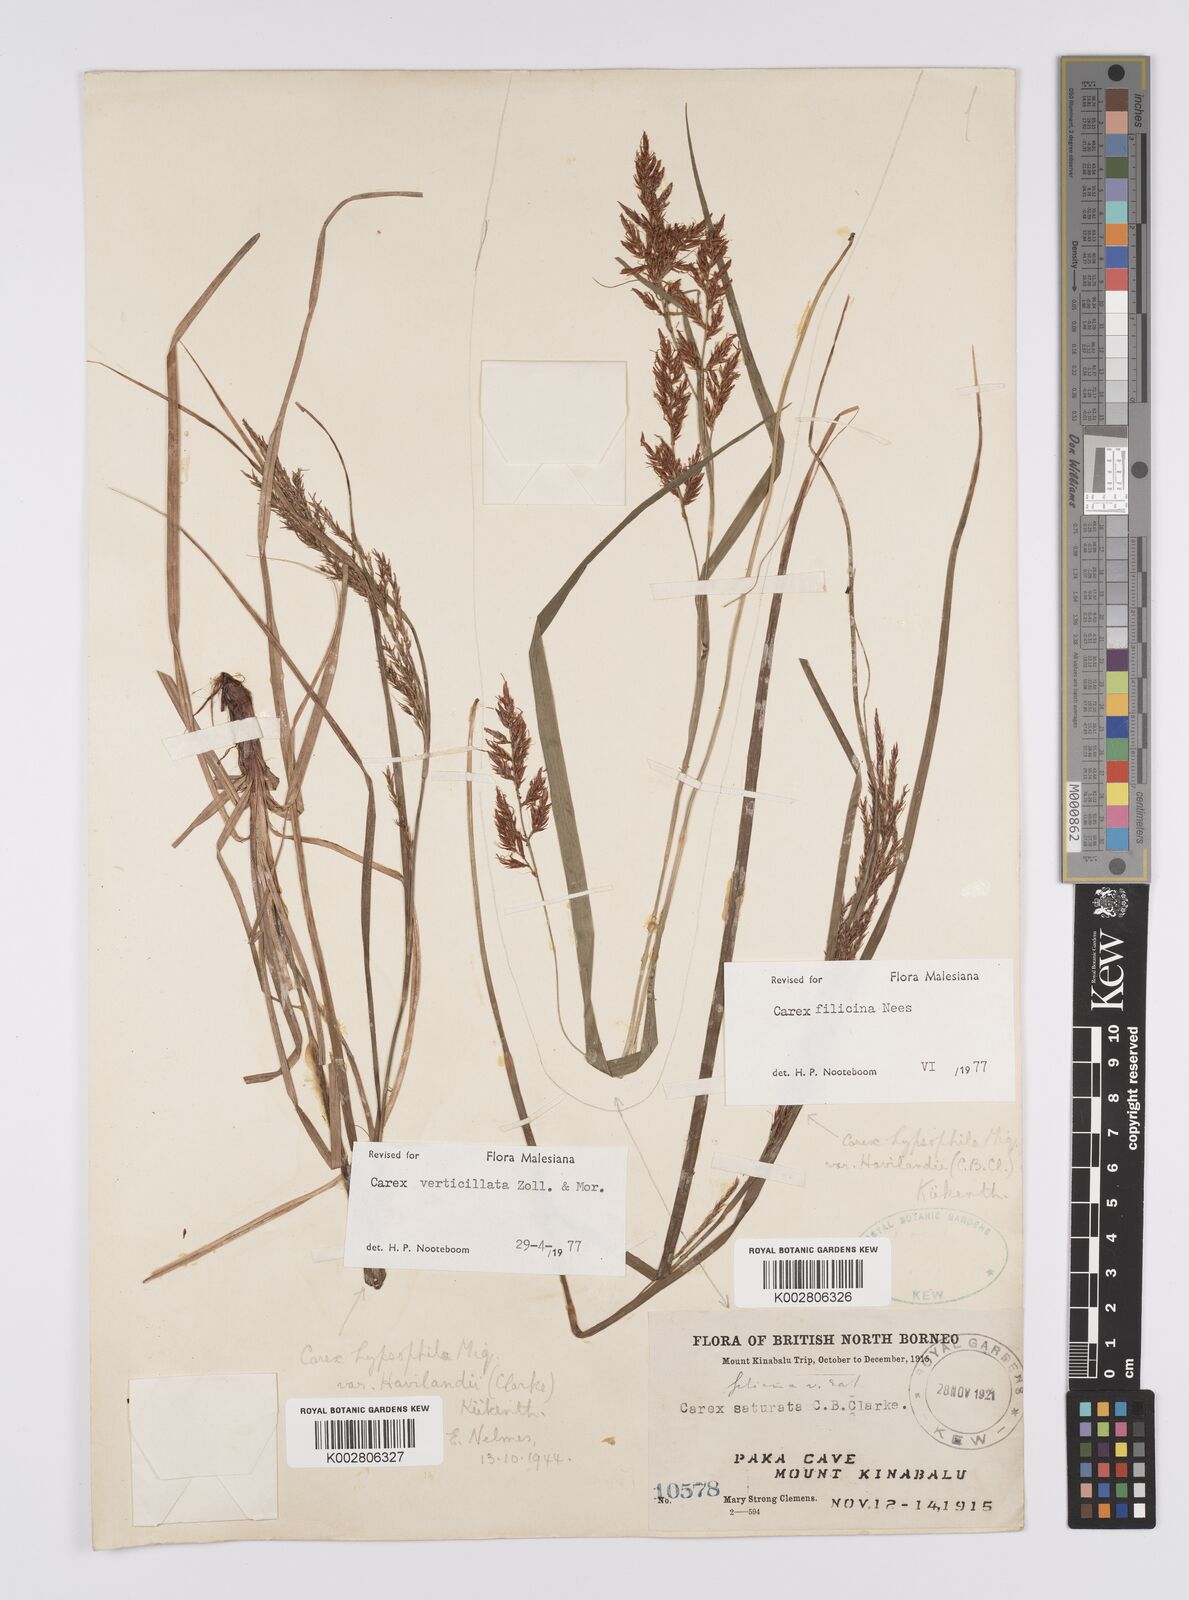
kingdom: Plantae
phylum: Tracheophyta
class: Liliopsida
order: Poales
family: Cyperaceae
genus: Carex
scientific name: Carex verticillata
